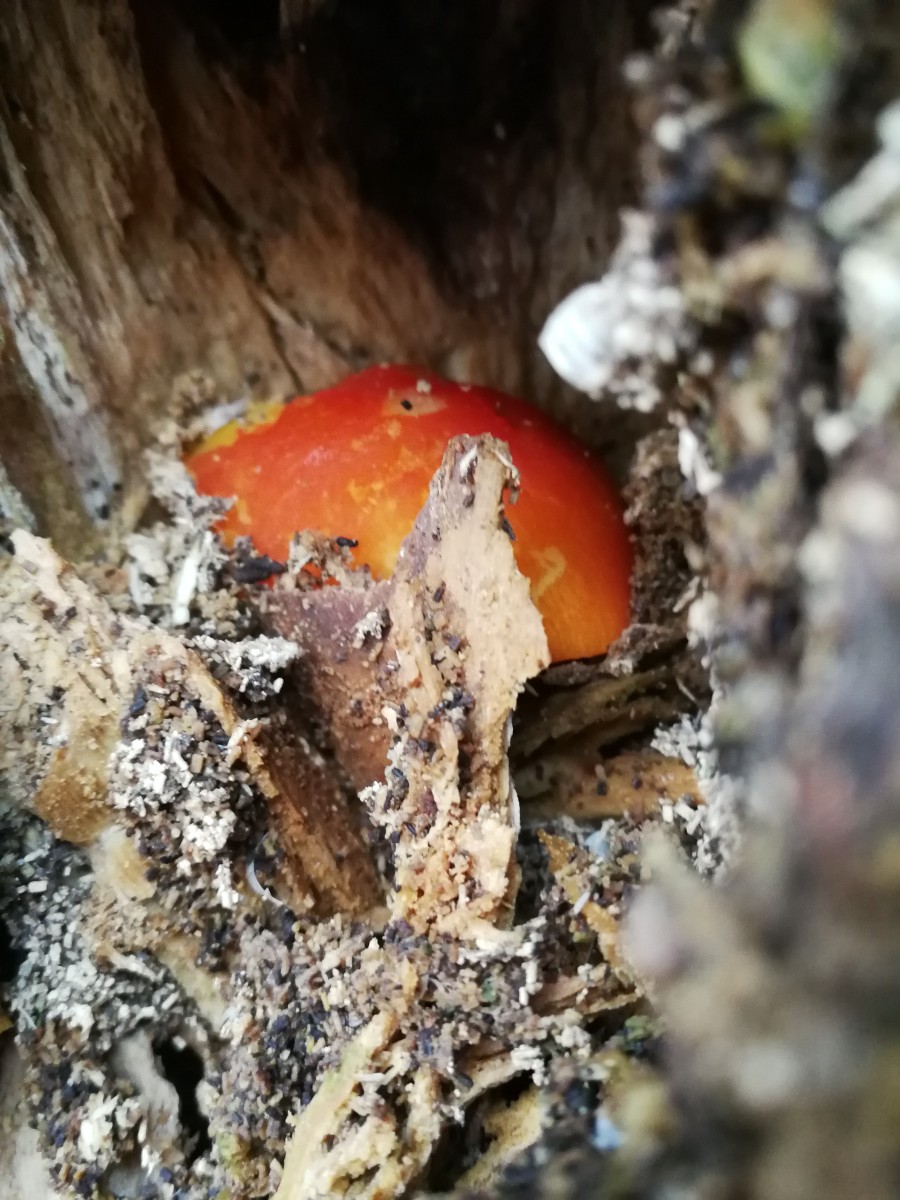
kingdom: Fungi
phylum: Basidiomycota
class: Agaricomycetes
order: Agaricales
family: Pluteaceae
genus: Pluteus
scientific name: Pluteus aurantiorugosus
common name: skarlagen-skærmhat
